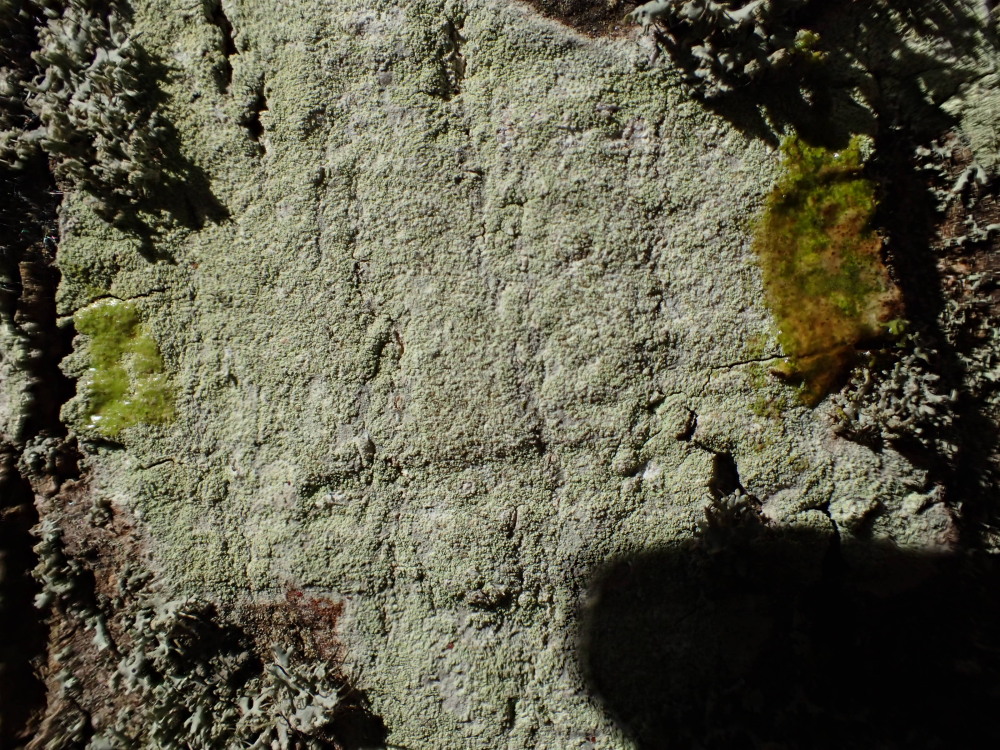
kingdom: Fungi
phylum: Ascomycota
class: Lecanoromycetes
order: Lecanorales
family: Lecanoraceae
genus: Lecanora
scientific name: Lecanora expallens
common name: bleggul kantskivelav
